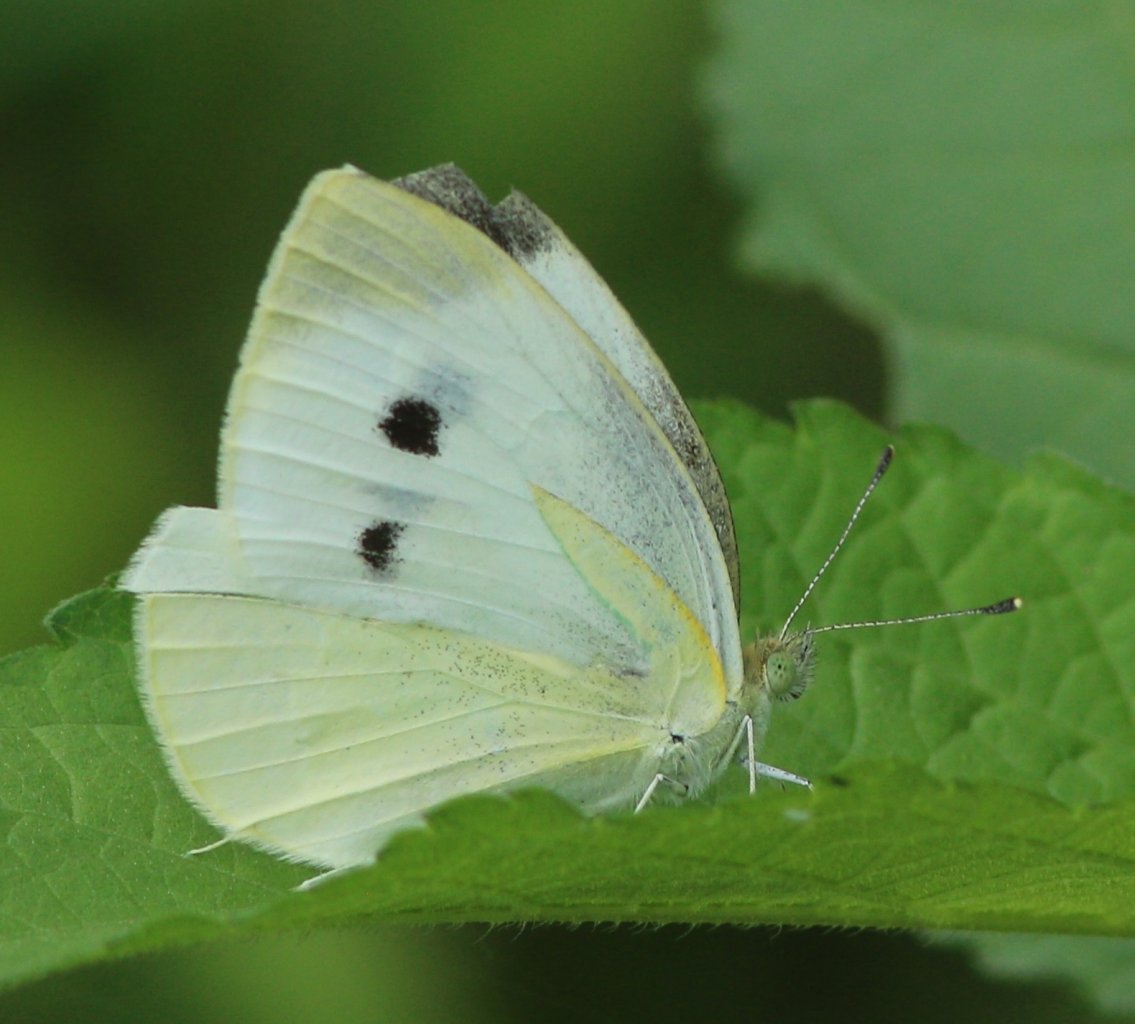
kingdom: Animalia
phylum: Arthropoda
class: Insecta
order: Lepidoptera
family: Pieridae
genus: Pieris
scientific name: Pieris rapae
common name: Cabbage White
